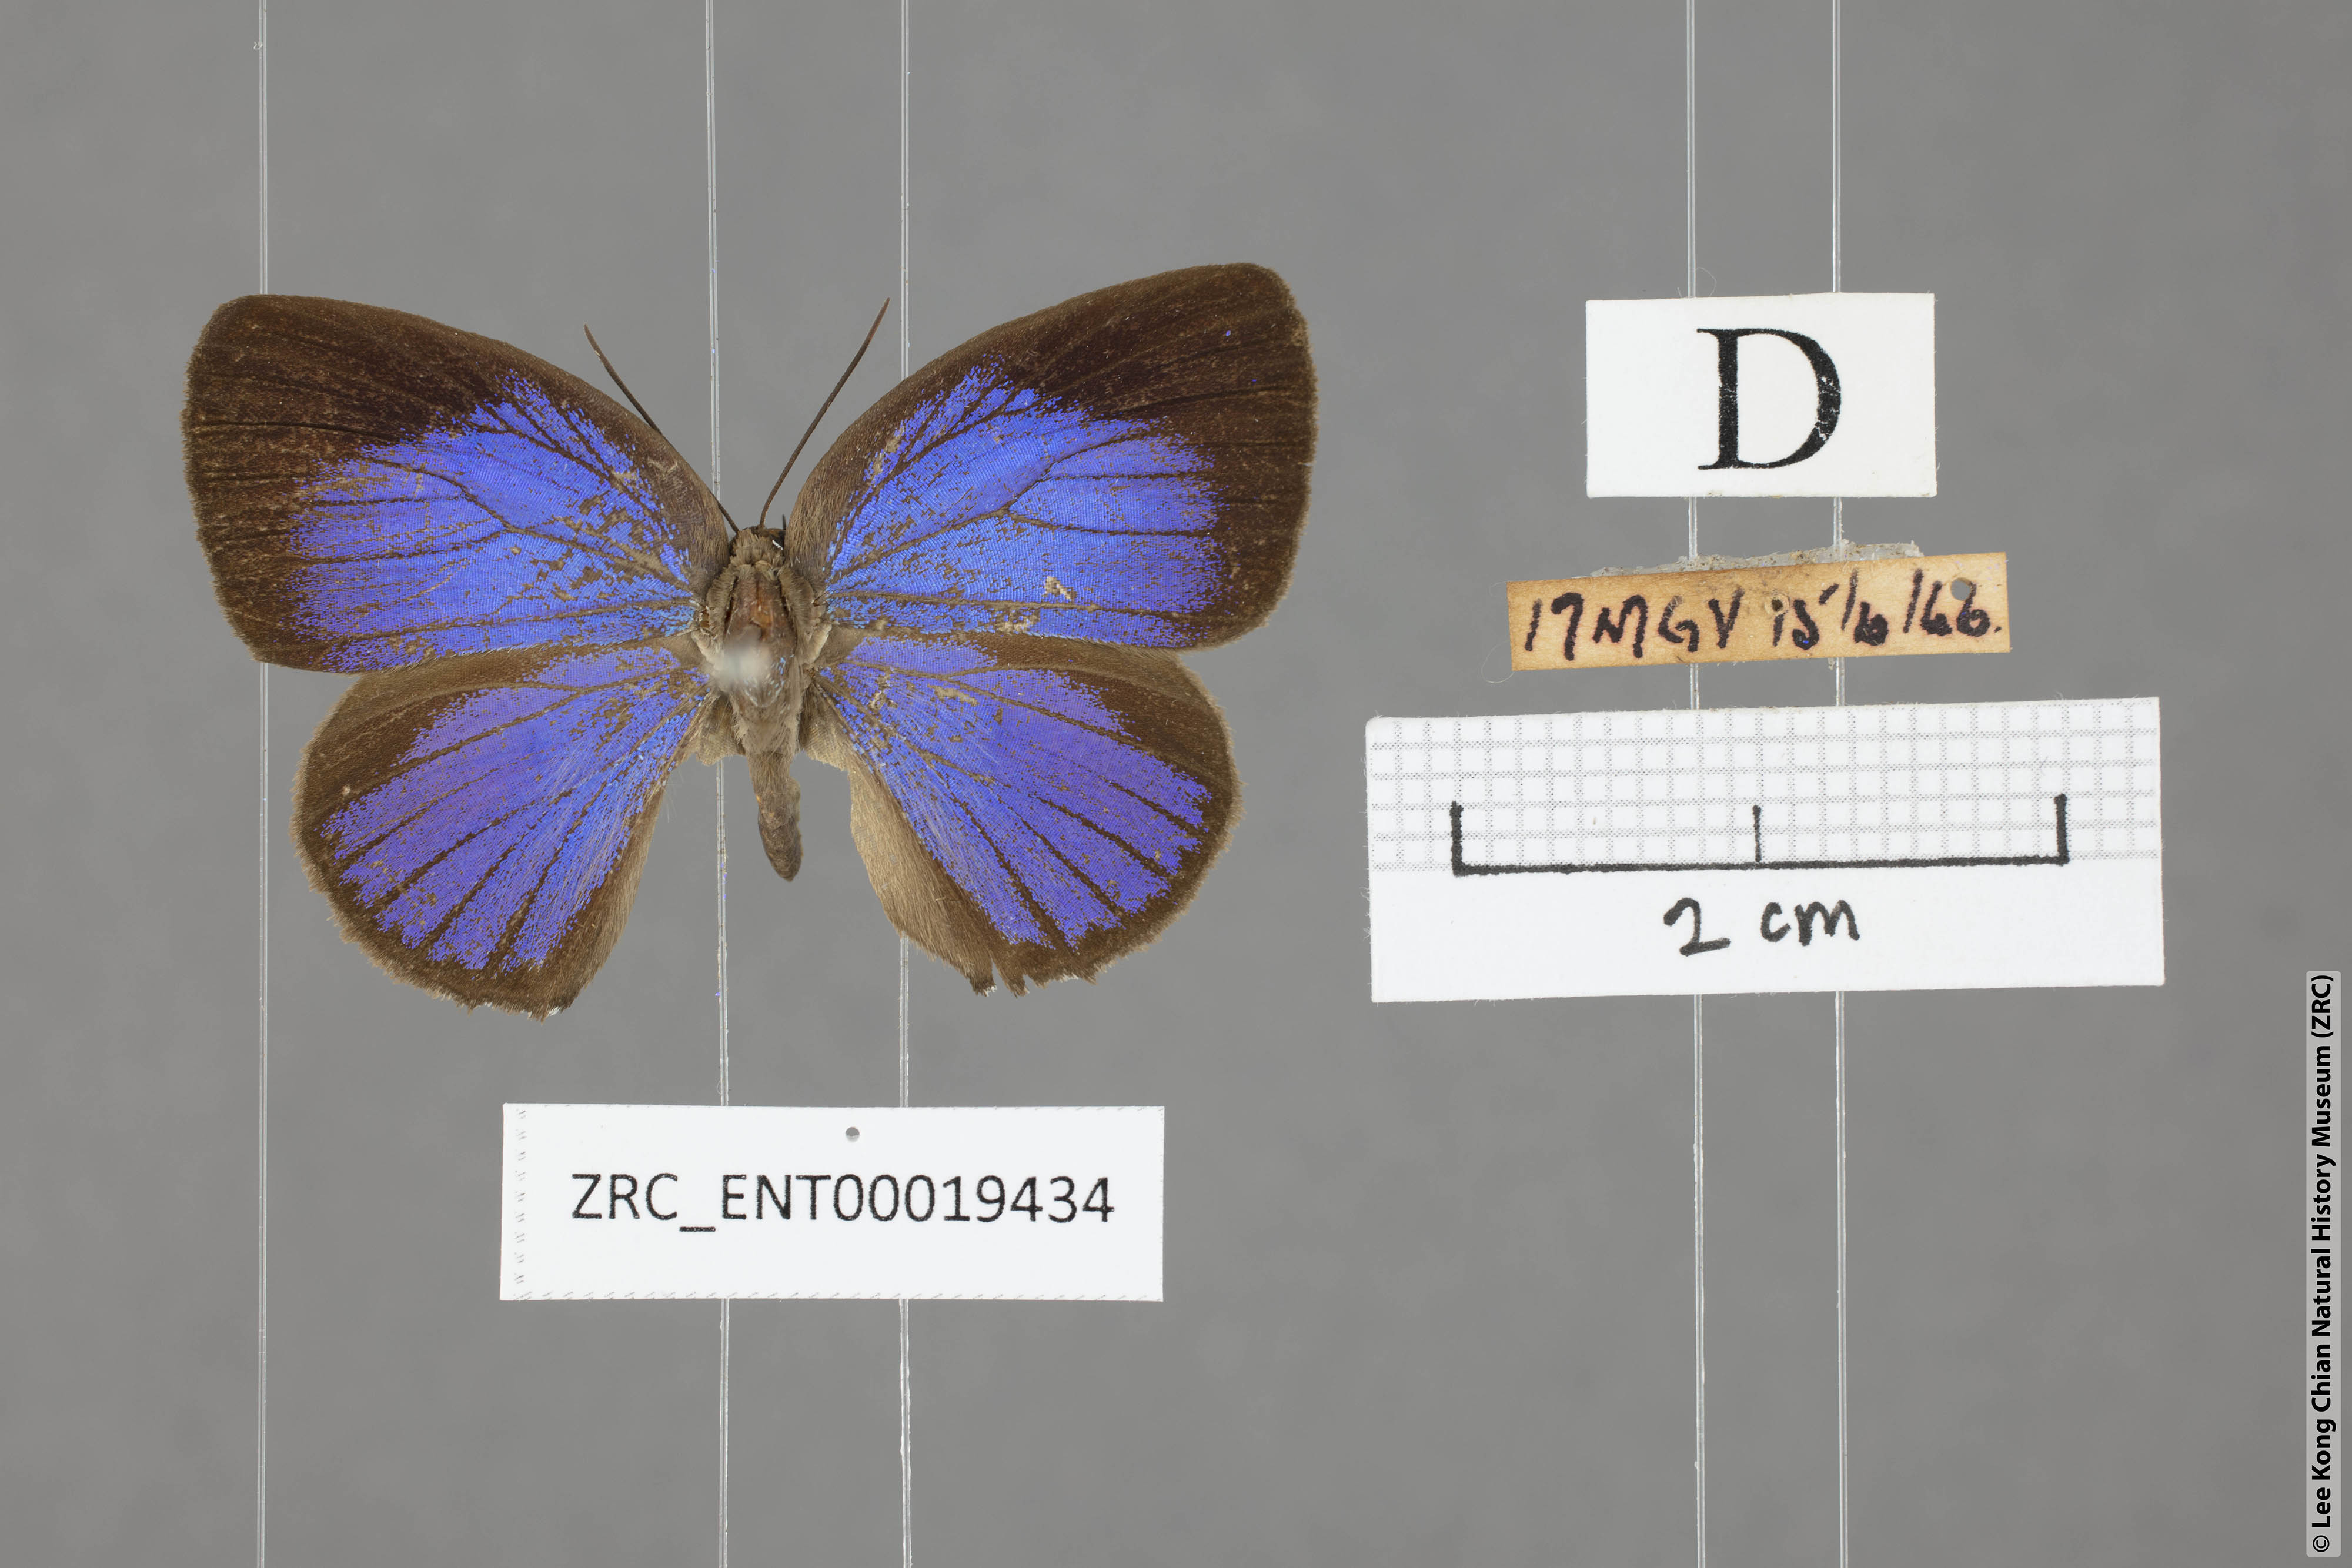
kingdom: Animalia
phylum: Arthropoda
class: Insecta
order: Lepidoptera
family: Lycaenidae
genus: Arhopala
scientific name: Arhopala epimuta
